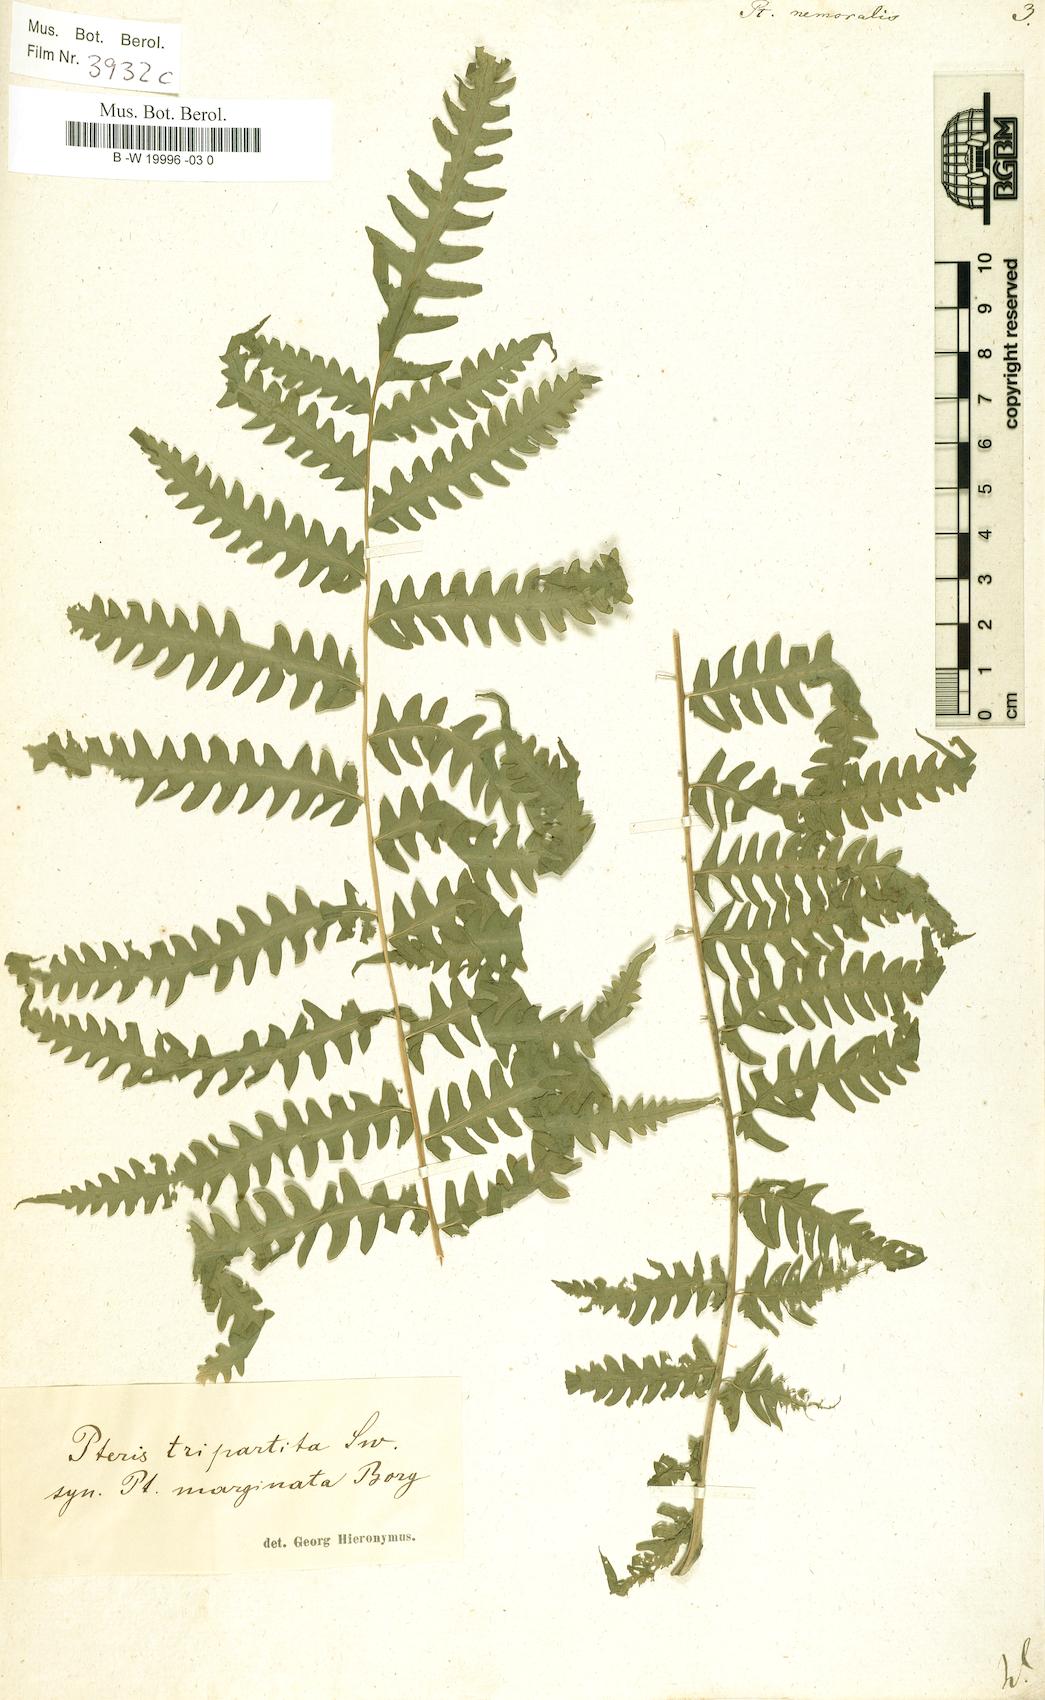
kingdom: Plantae
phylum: Tracheophyta
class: Polypodiopsida
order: Polypodiales
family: Pteridaceae
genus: Pteris
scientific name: Pteris linearis
